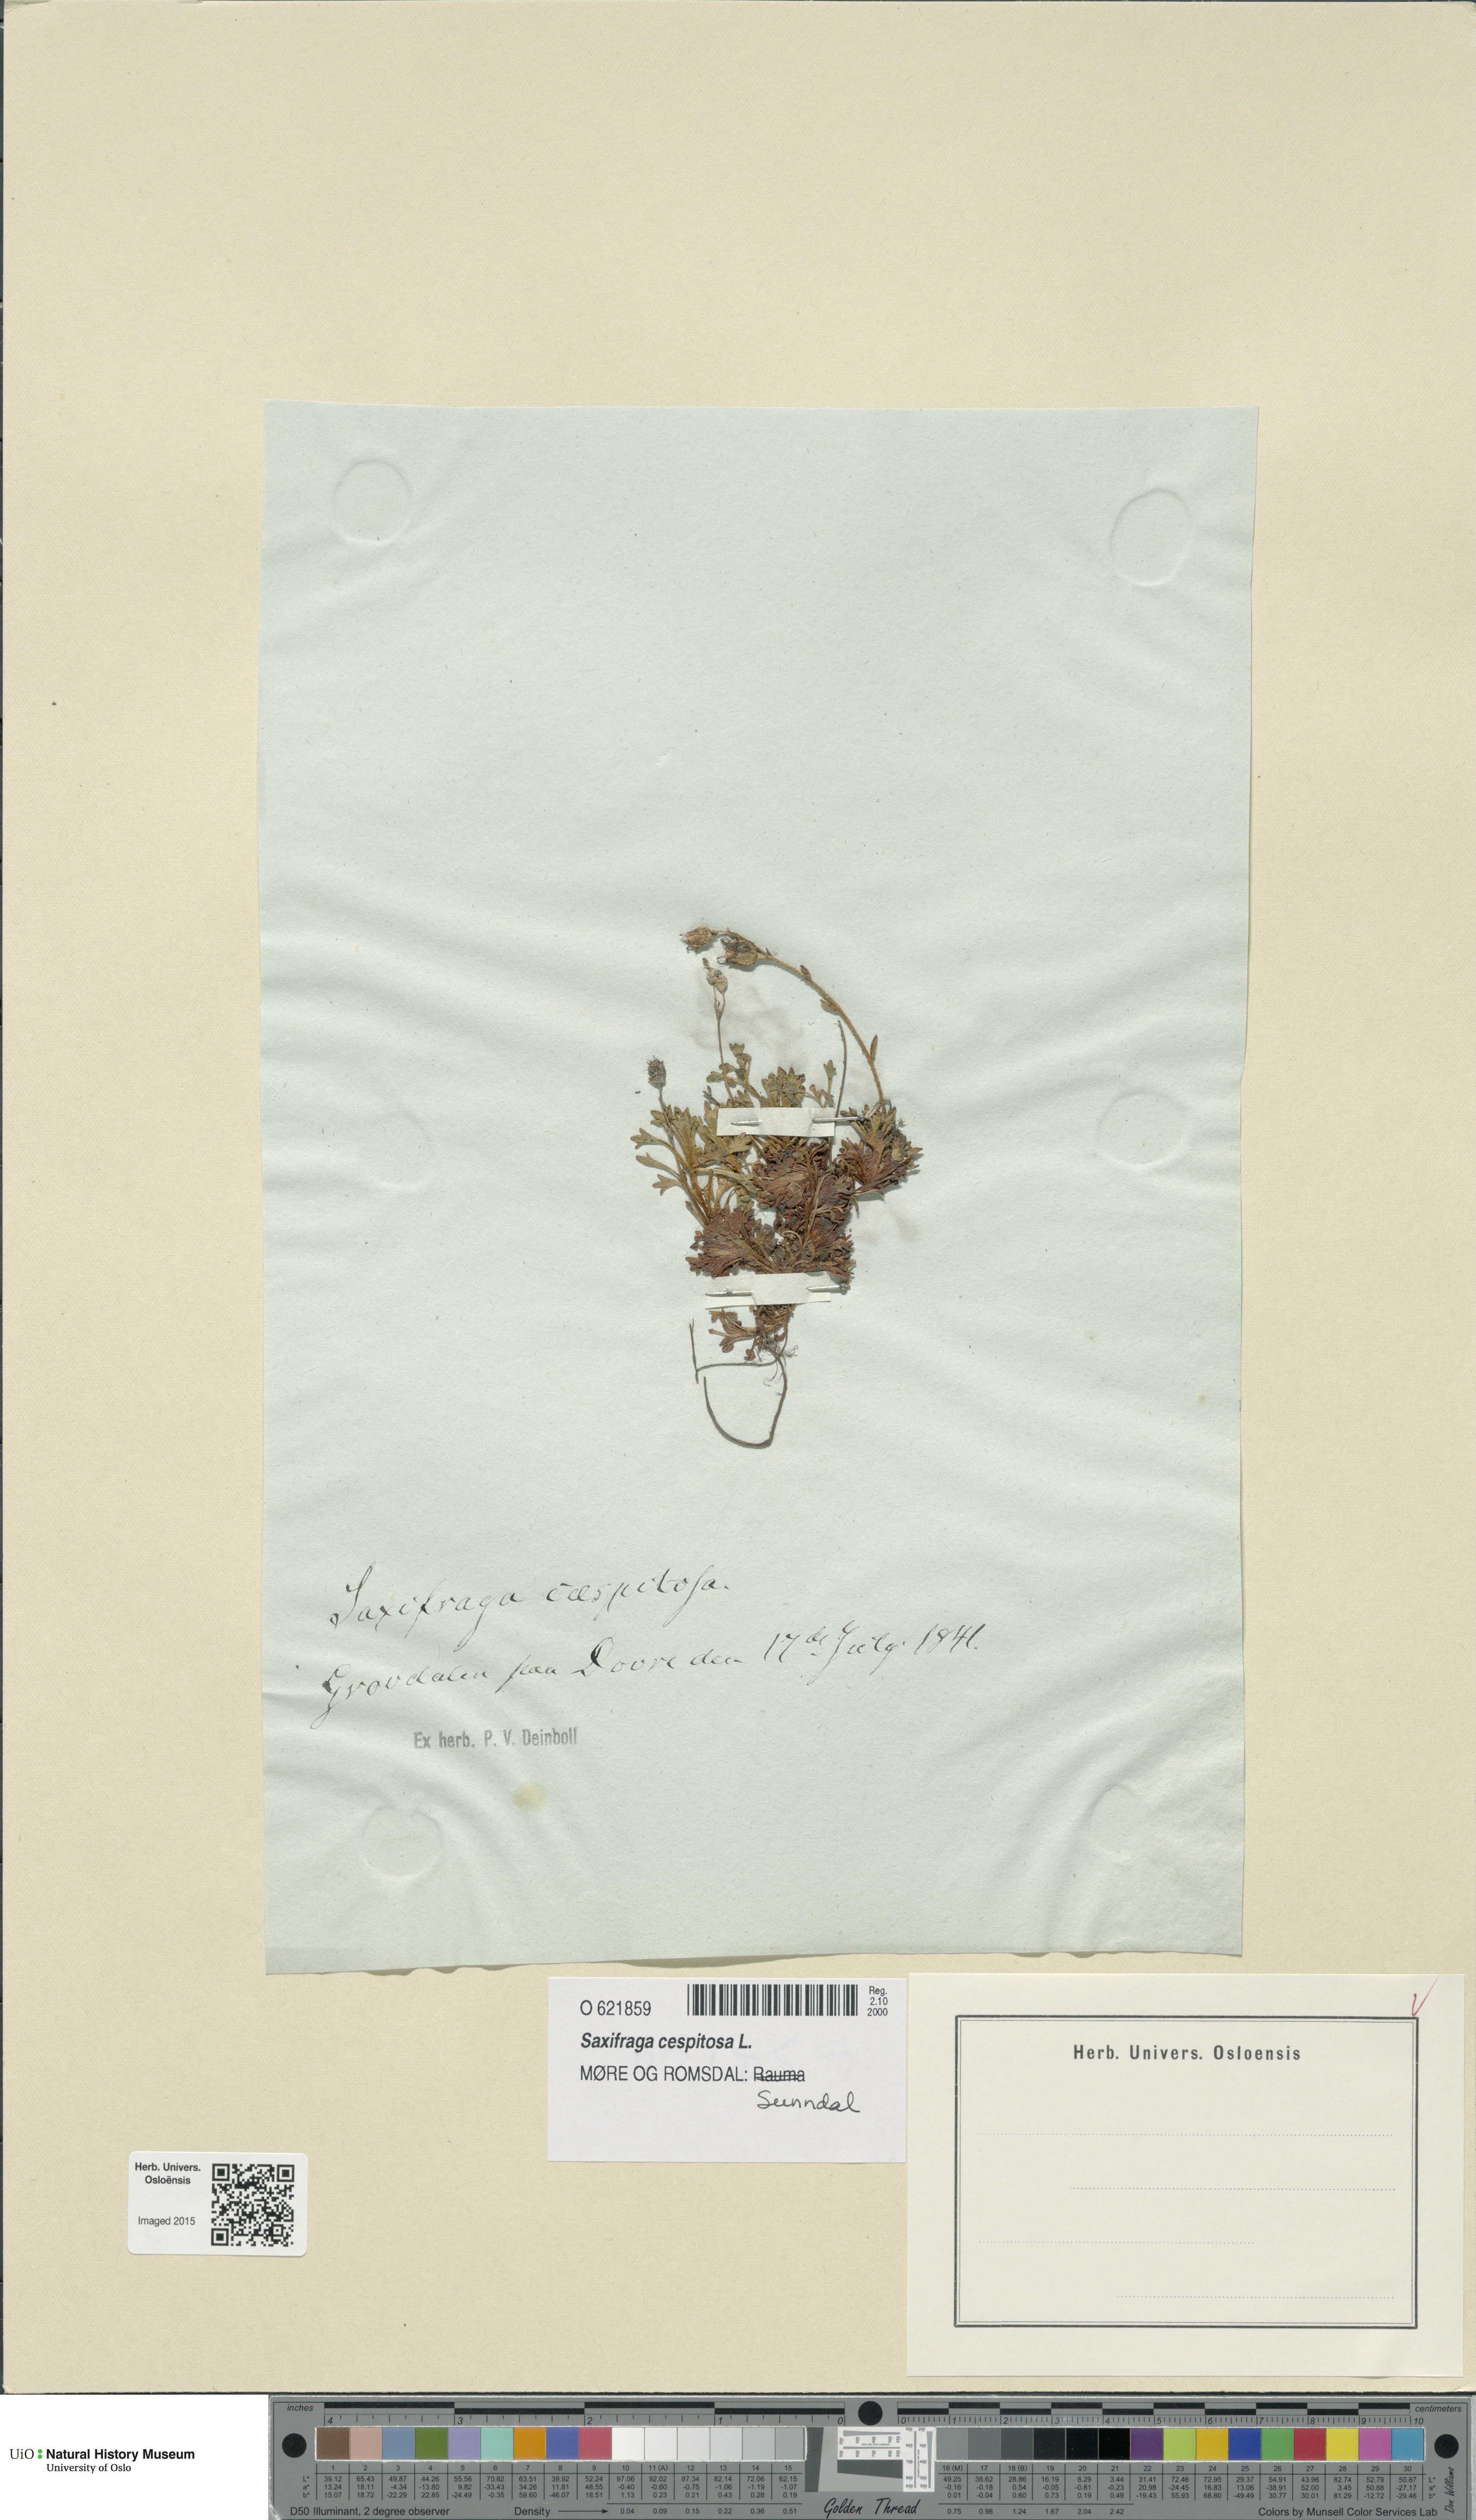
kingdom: Plantae
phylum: Tracheophyta
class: Magnoliopsida
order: Saxifragales
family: Saxifragaceae
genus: Saxifraga
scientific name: Saxifraga cespitosa
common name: Tufted saxifrage
